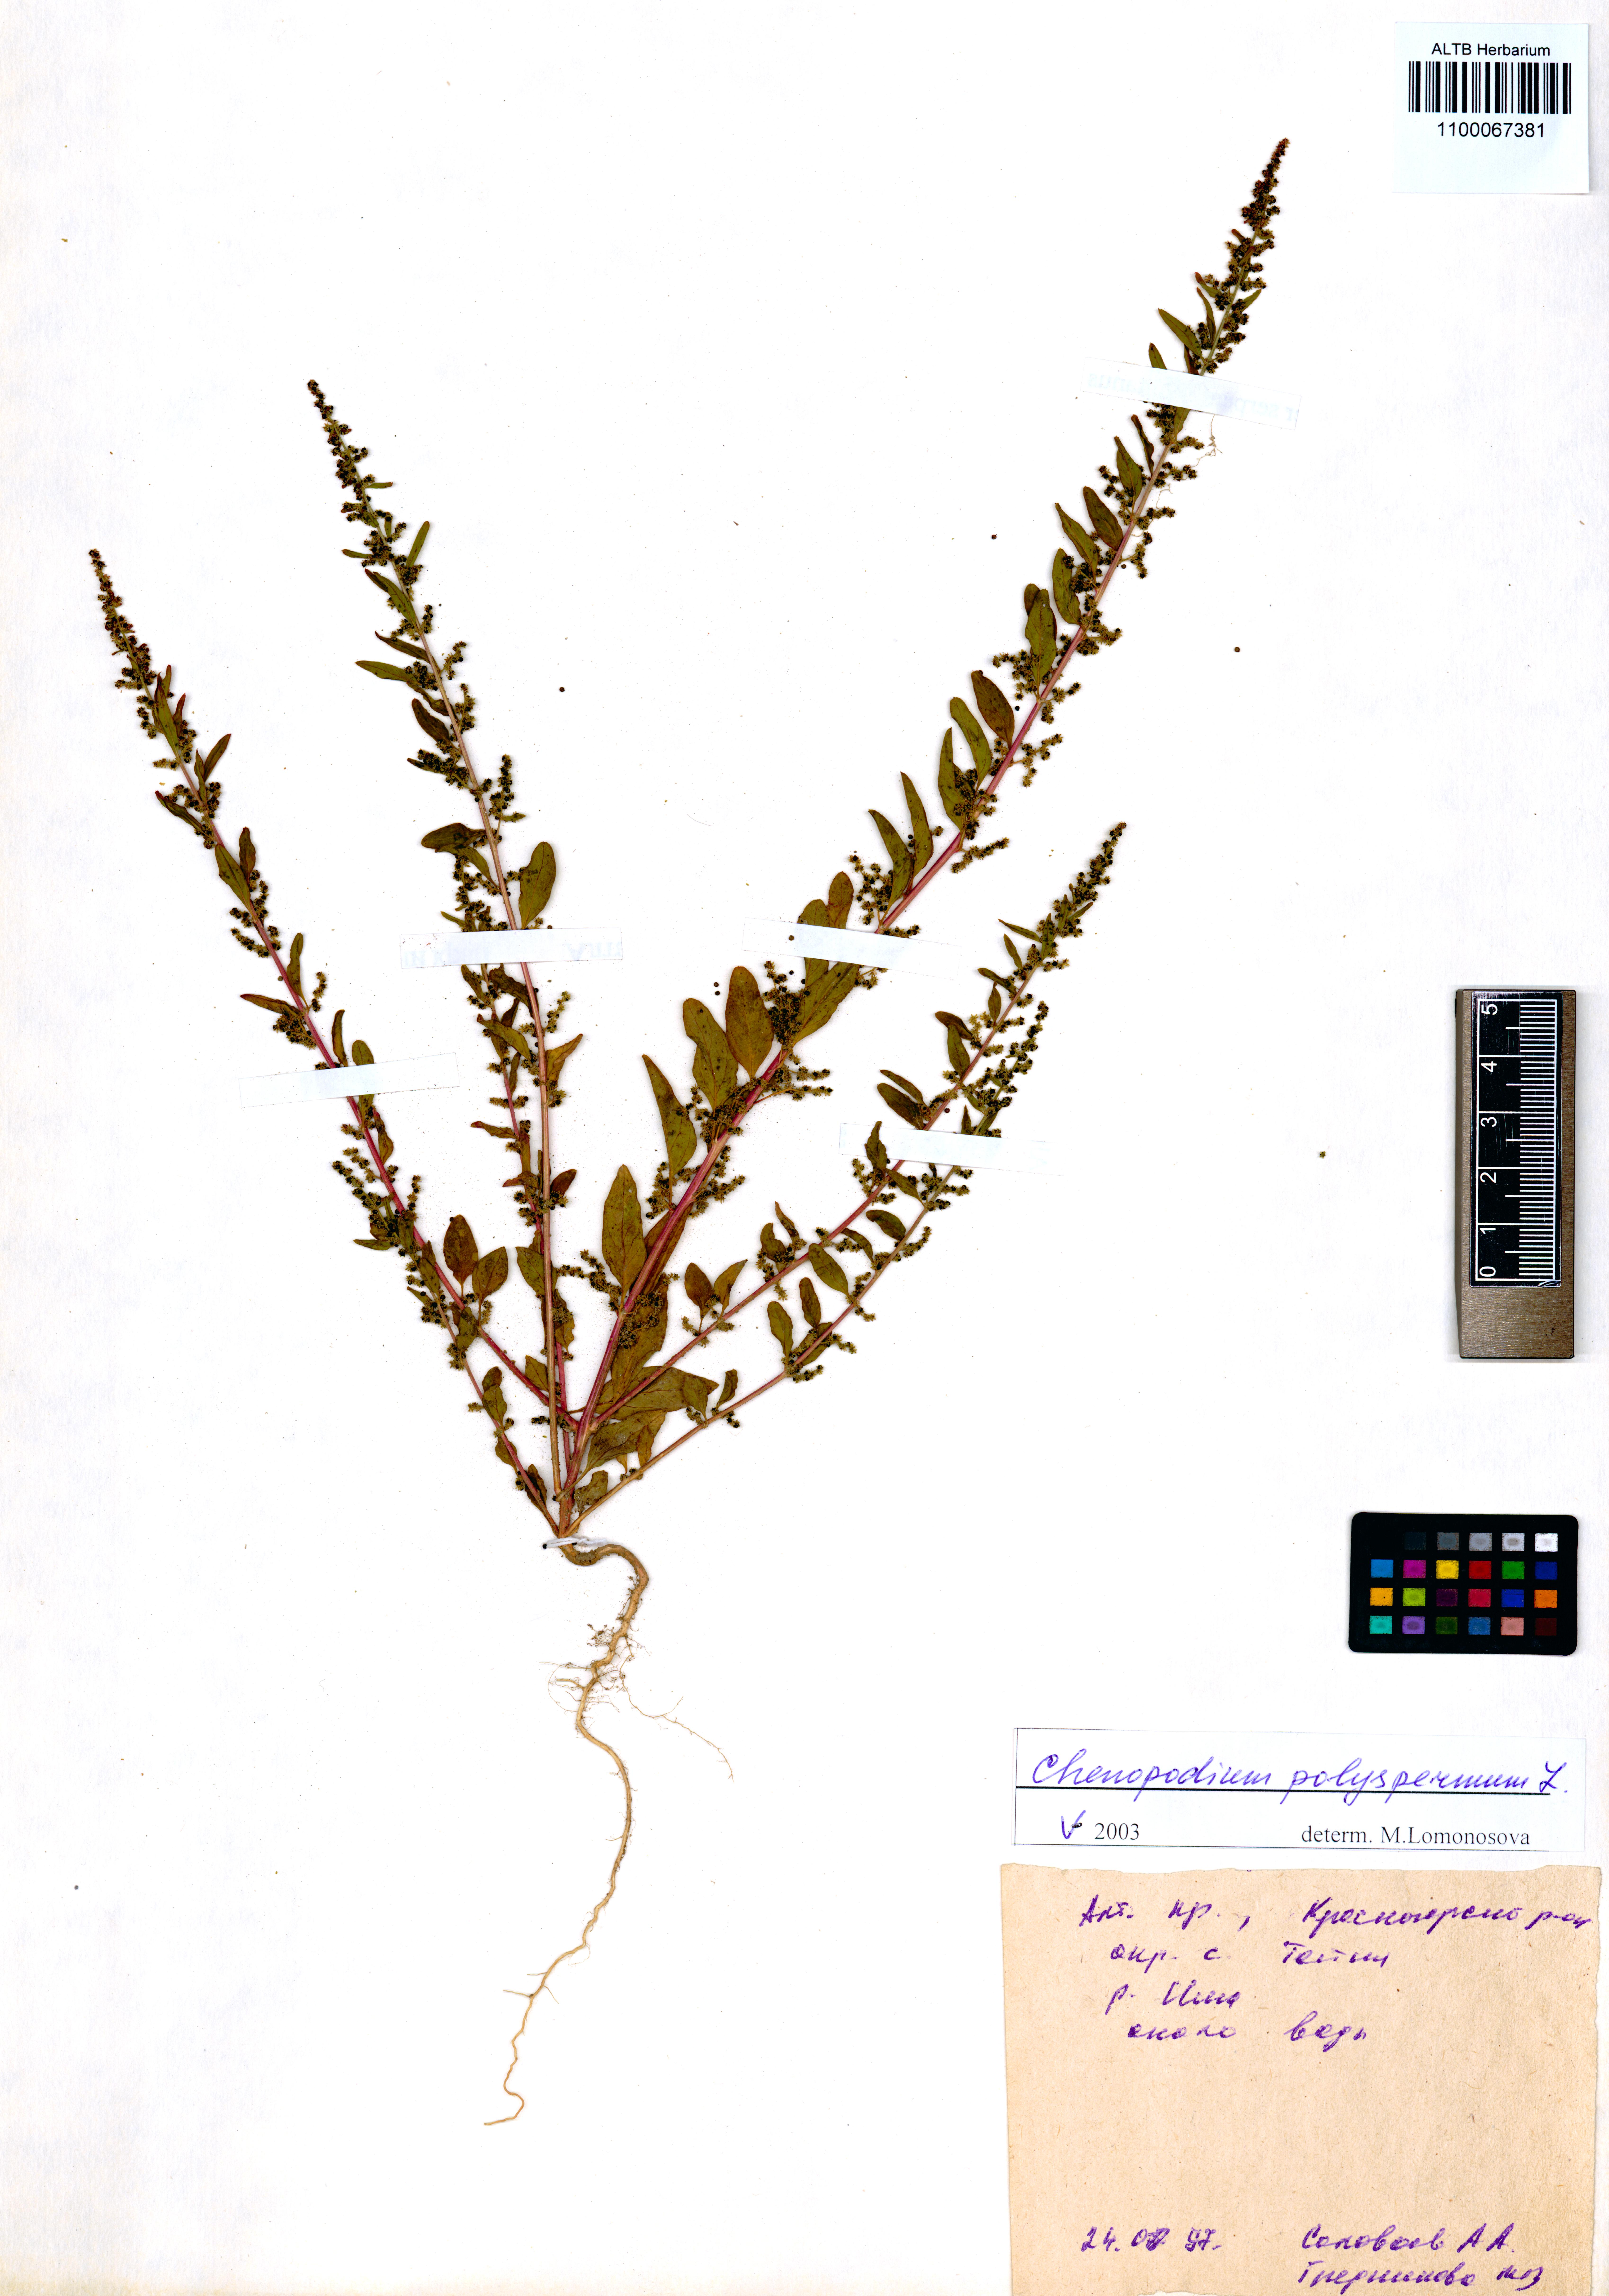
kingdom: Plantae
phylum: Tracheophyta
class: Magnoliopsida
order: Caryophyllales
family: Amaranthaceae
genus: Lipandra
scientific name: Lipandra polysperma
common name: Many-seed goosefoot
